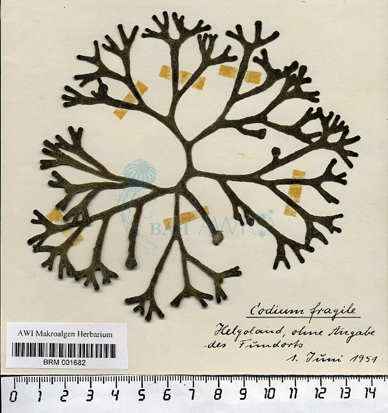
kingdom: Plantae
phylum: Chlorophyta
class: Ulvophyceae
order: Bryopsidales
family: Codiaceae
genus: Codium
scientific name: Codium fragile
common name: Dead man's fingers
